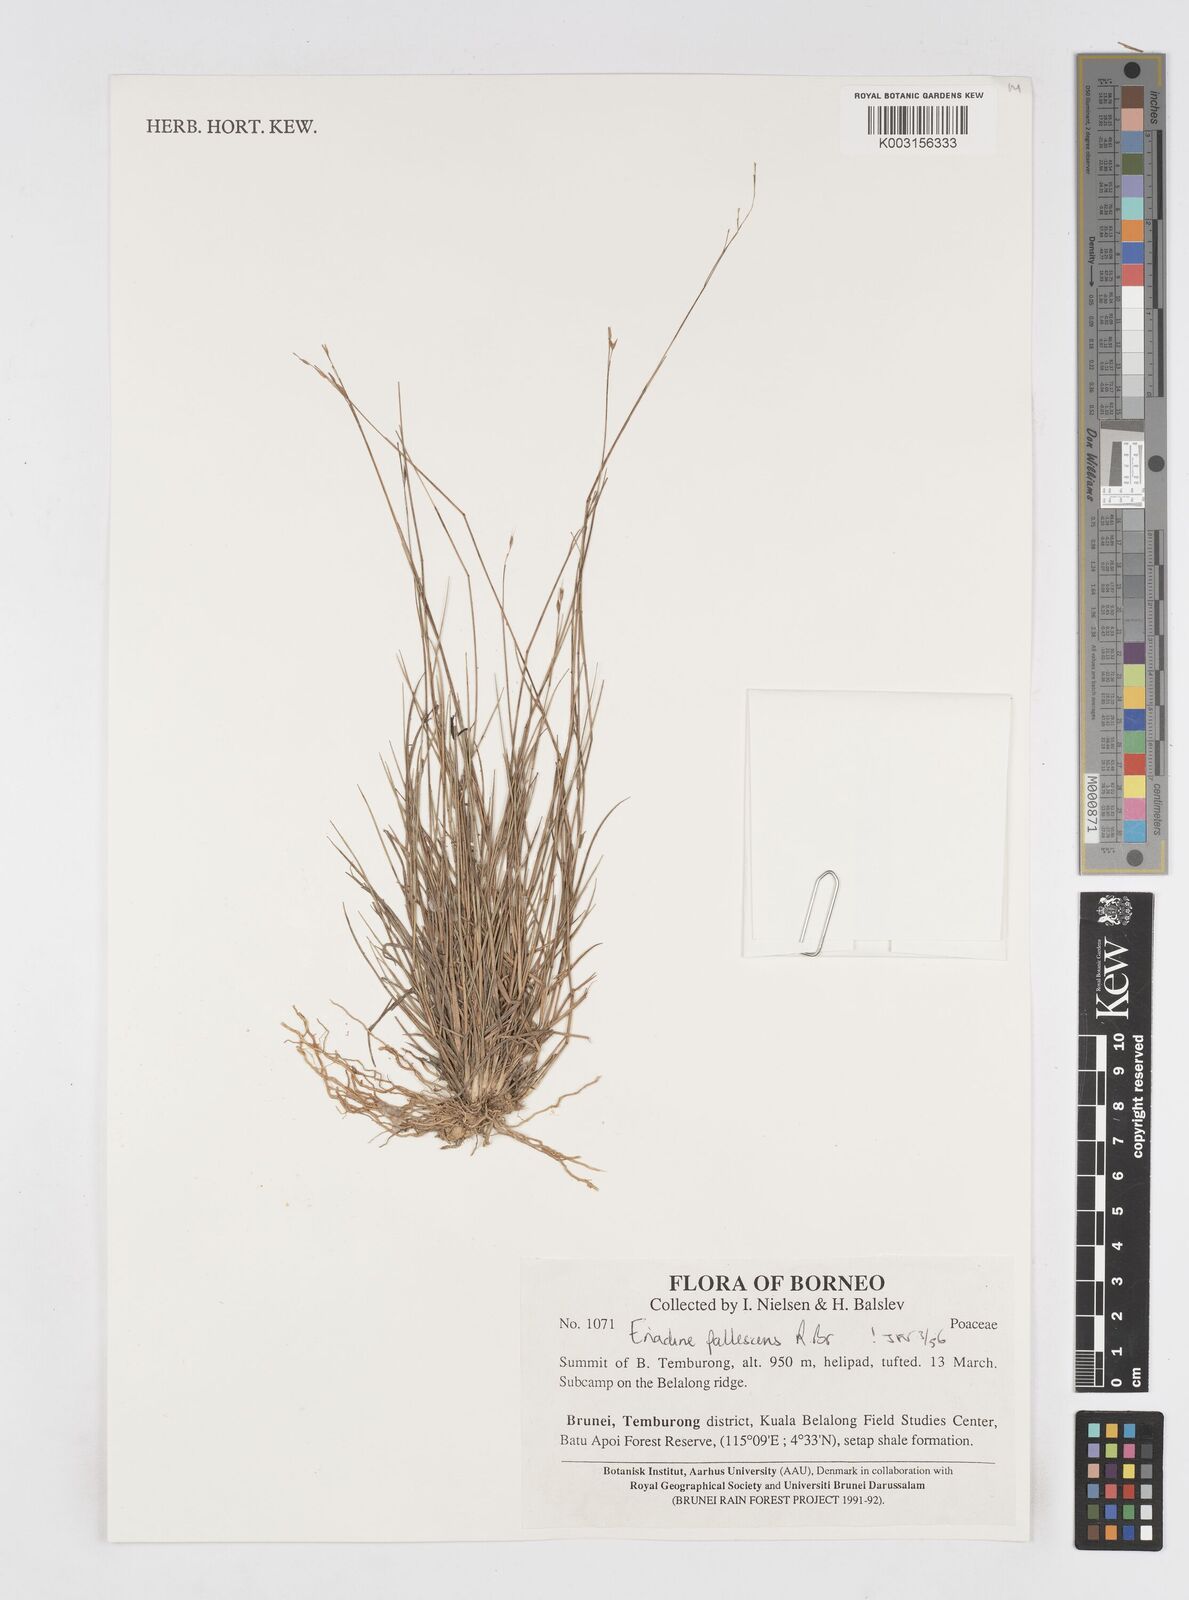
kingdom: Plantae
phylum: Tracheophyta
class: Liliopsida
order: Poales
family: Poaceae
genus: Eriachne
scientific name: Eriachne pallescens
